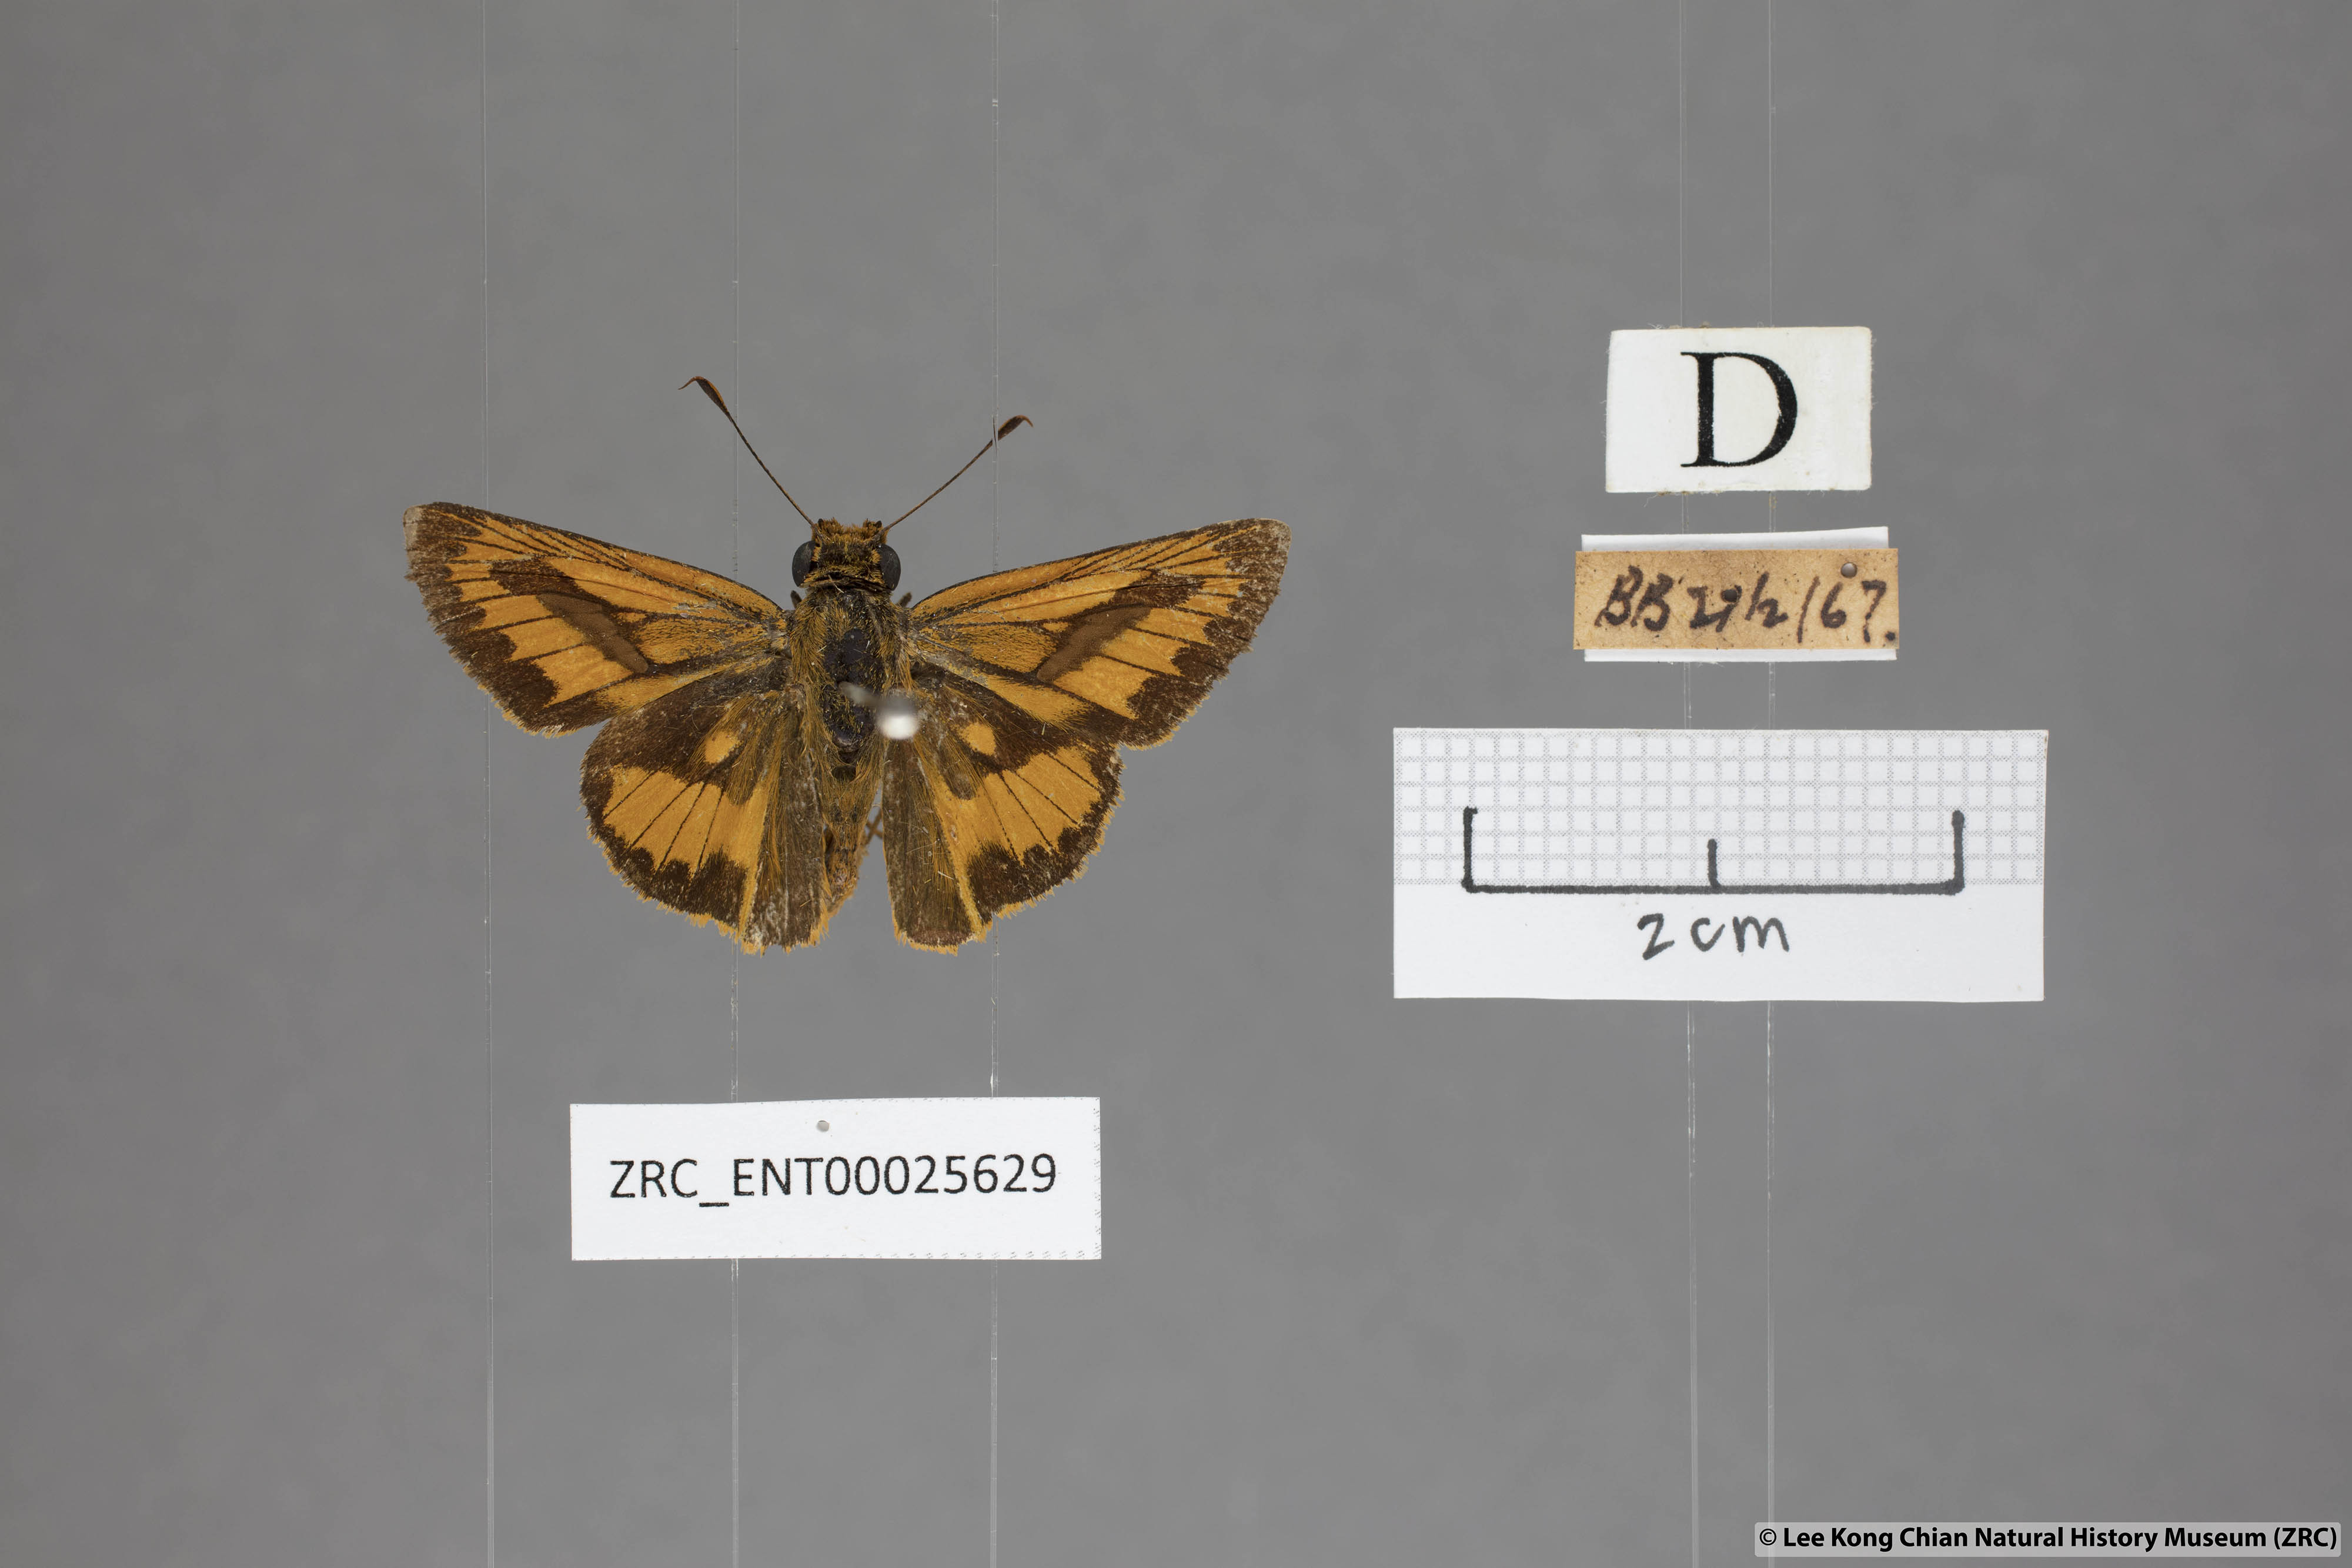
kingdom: Animalia
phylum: Arthropoda
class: Insecta
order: Lepidoptera
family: Hesperiidae
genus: Telicota
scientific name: Telicota augias
